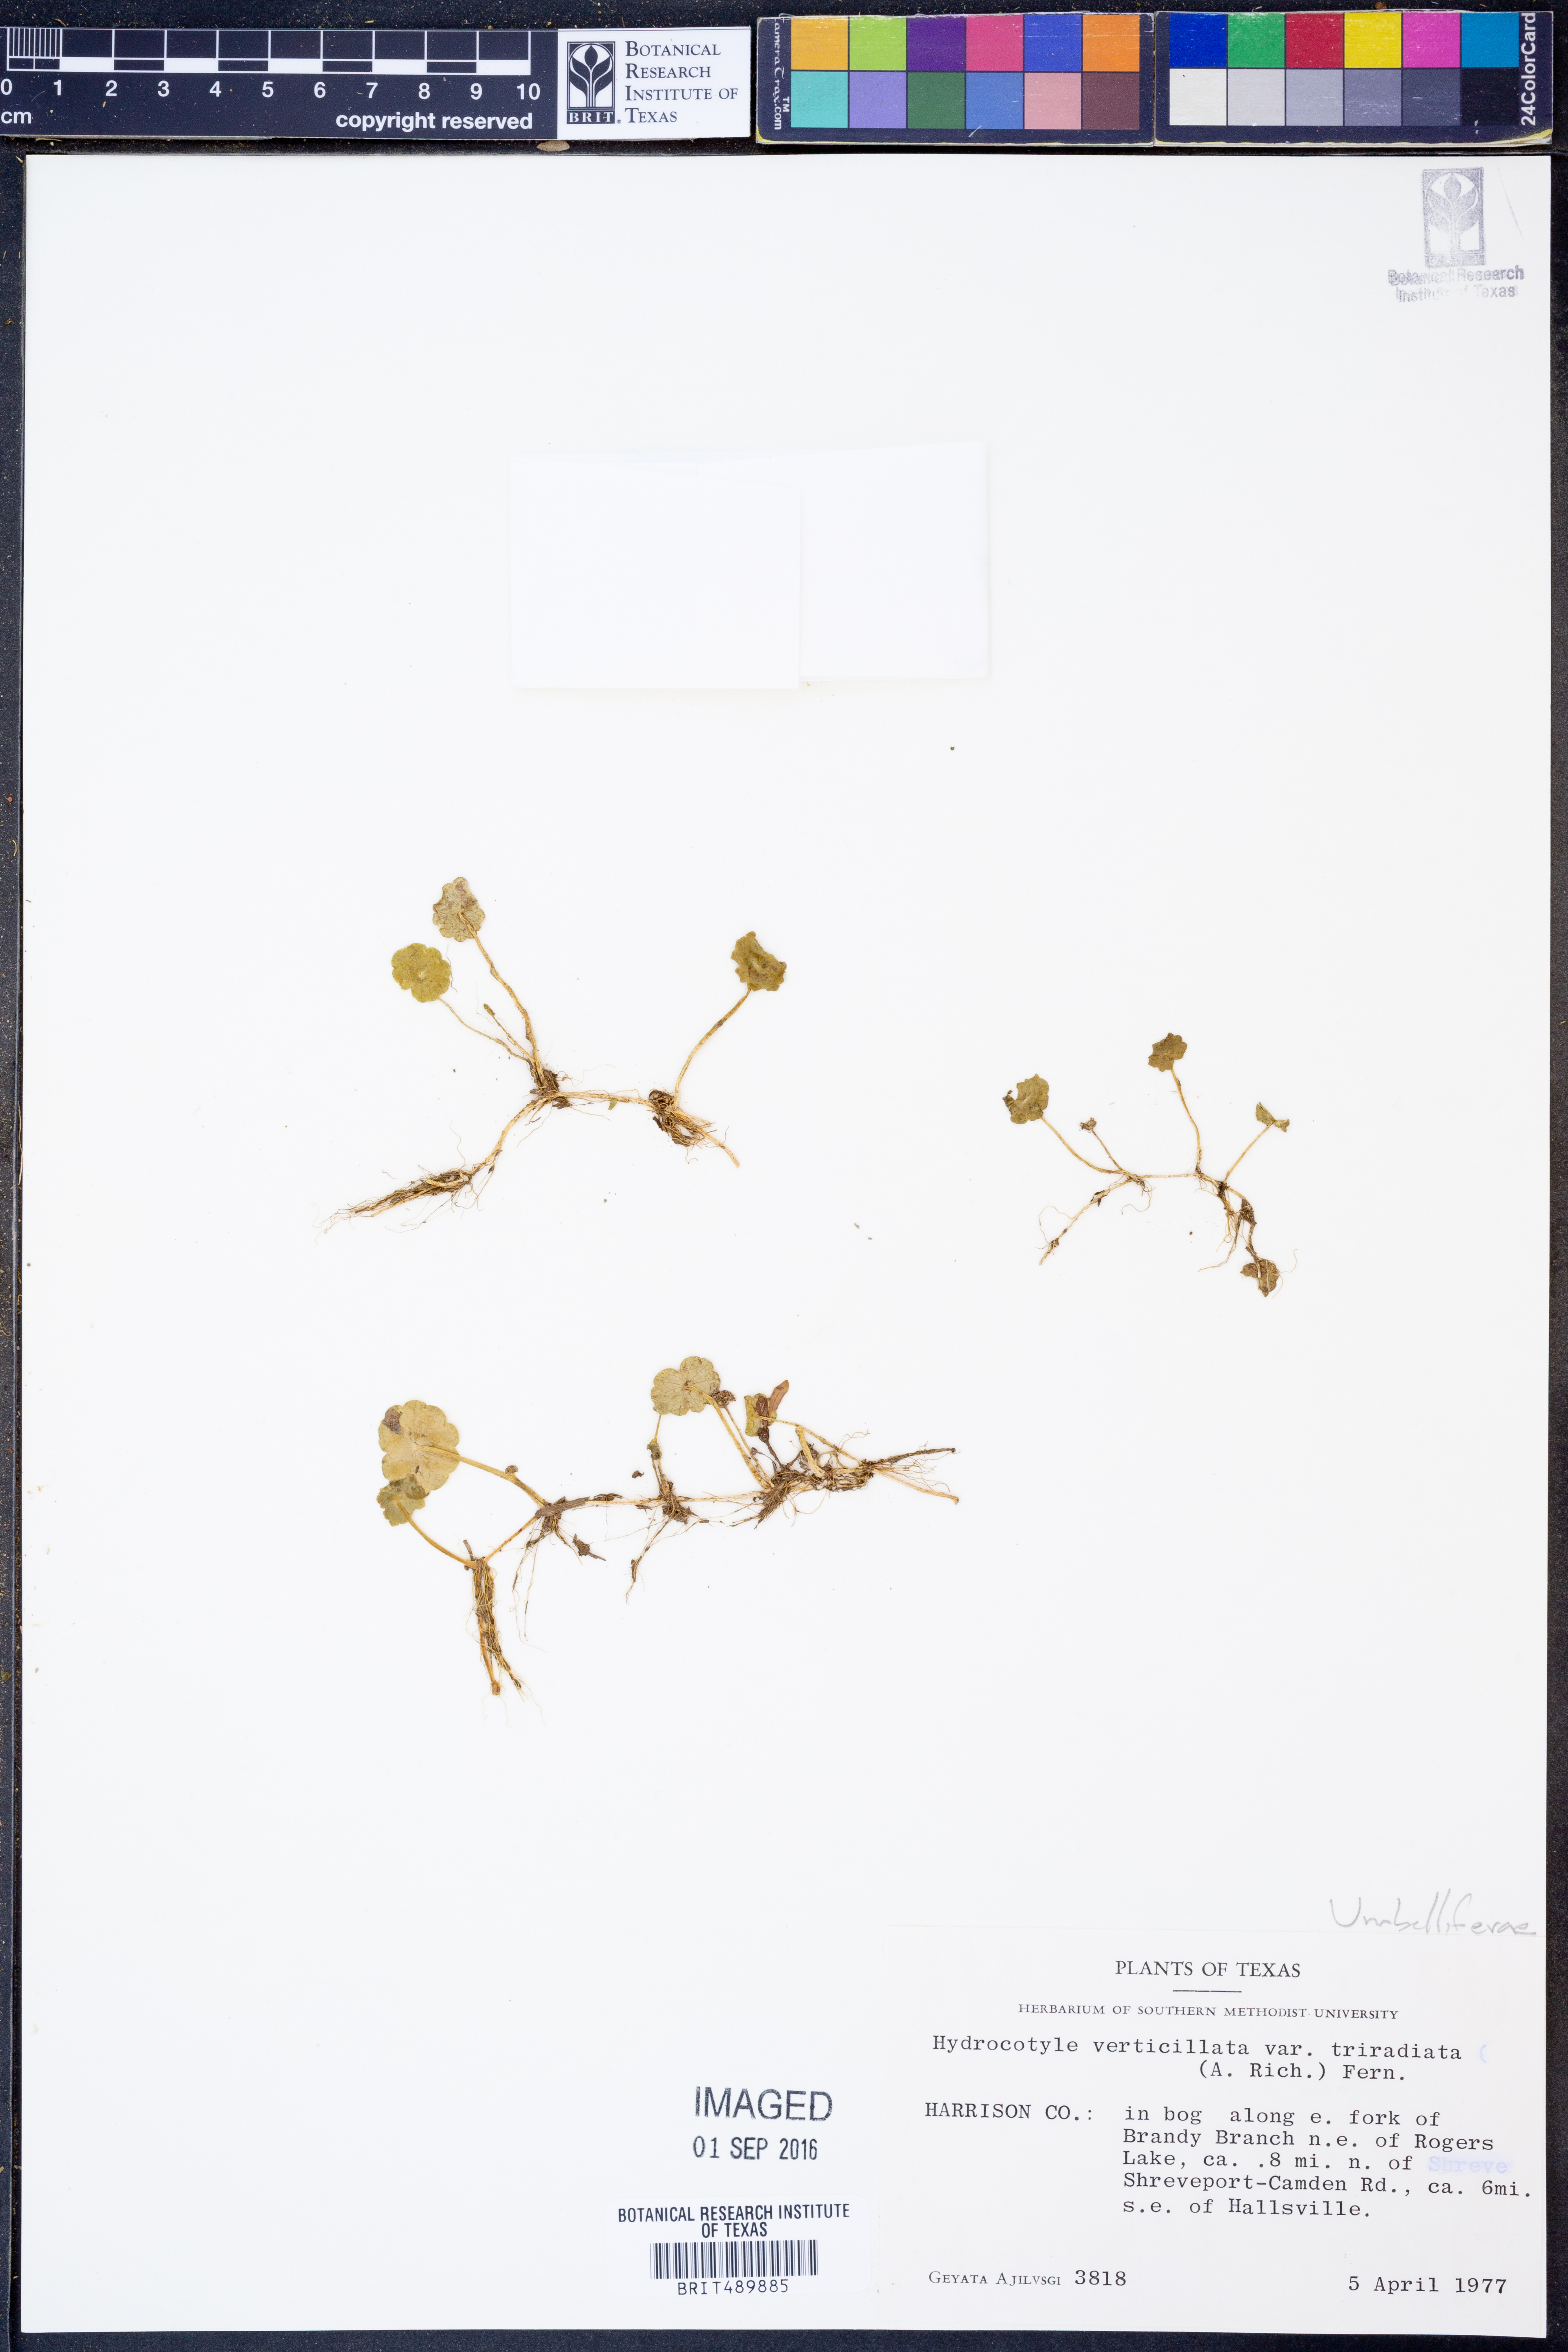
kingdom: Plantae
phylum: Tracheophyta
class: Magnoliopsida
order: Apiales
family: Araliaceae
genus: Hydrocotyle
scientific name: Hydrocotyle bonariensis
